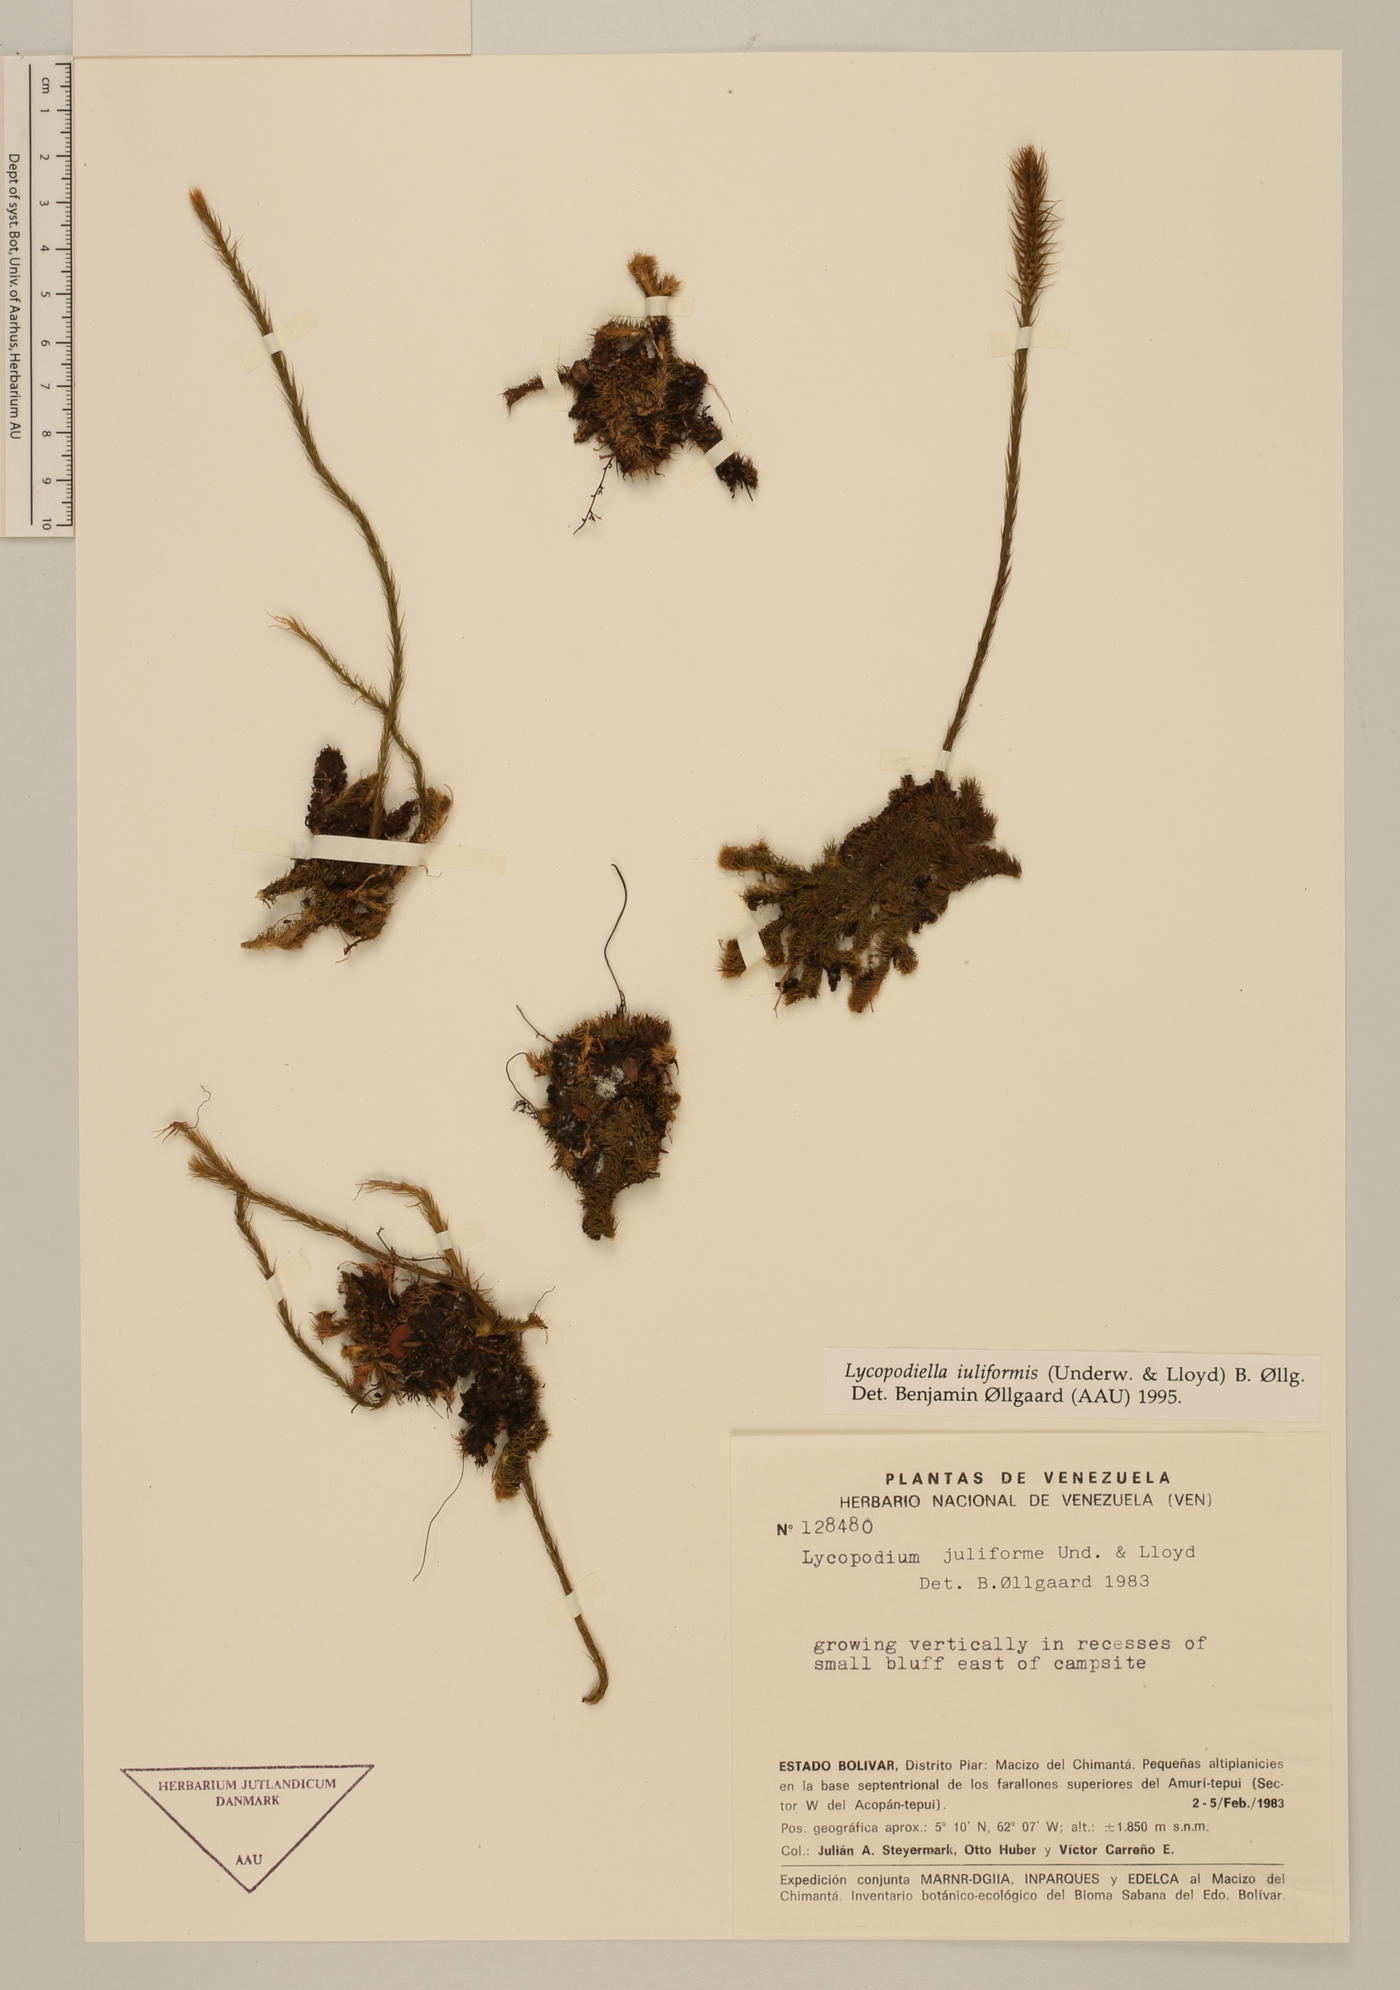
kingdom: Plantae
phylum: Tracheophyta
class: Lycopodiopsida
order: Lycopodiales
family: Lycopodiaceae
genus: Pseudolycopodiella
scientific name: Pseudolycopodiella iuliformis
